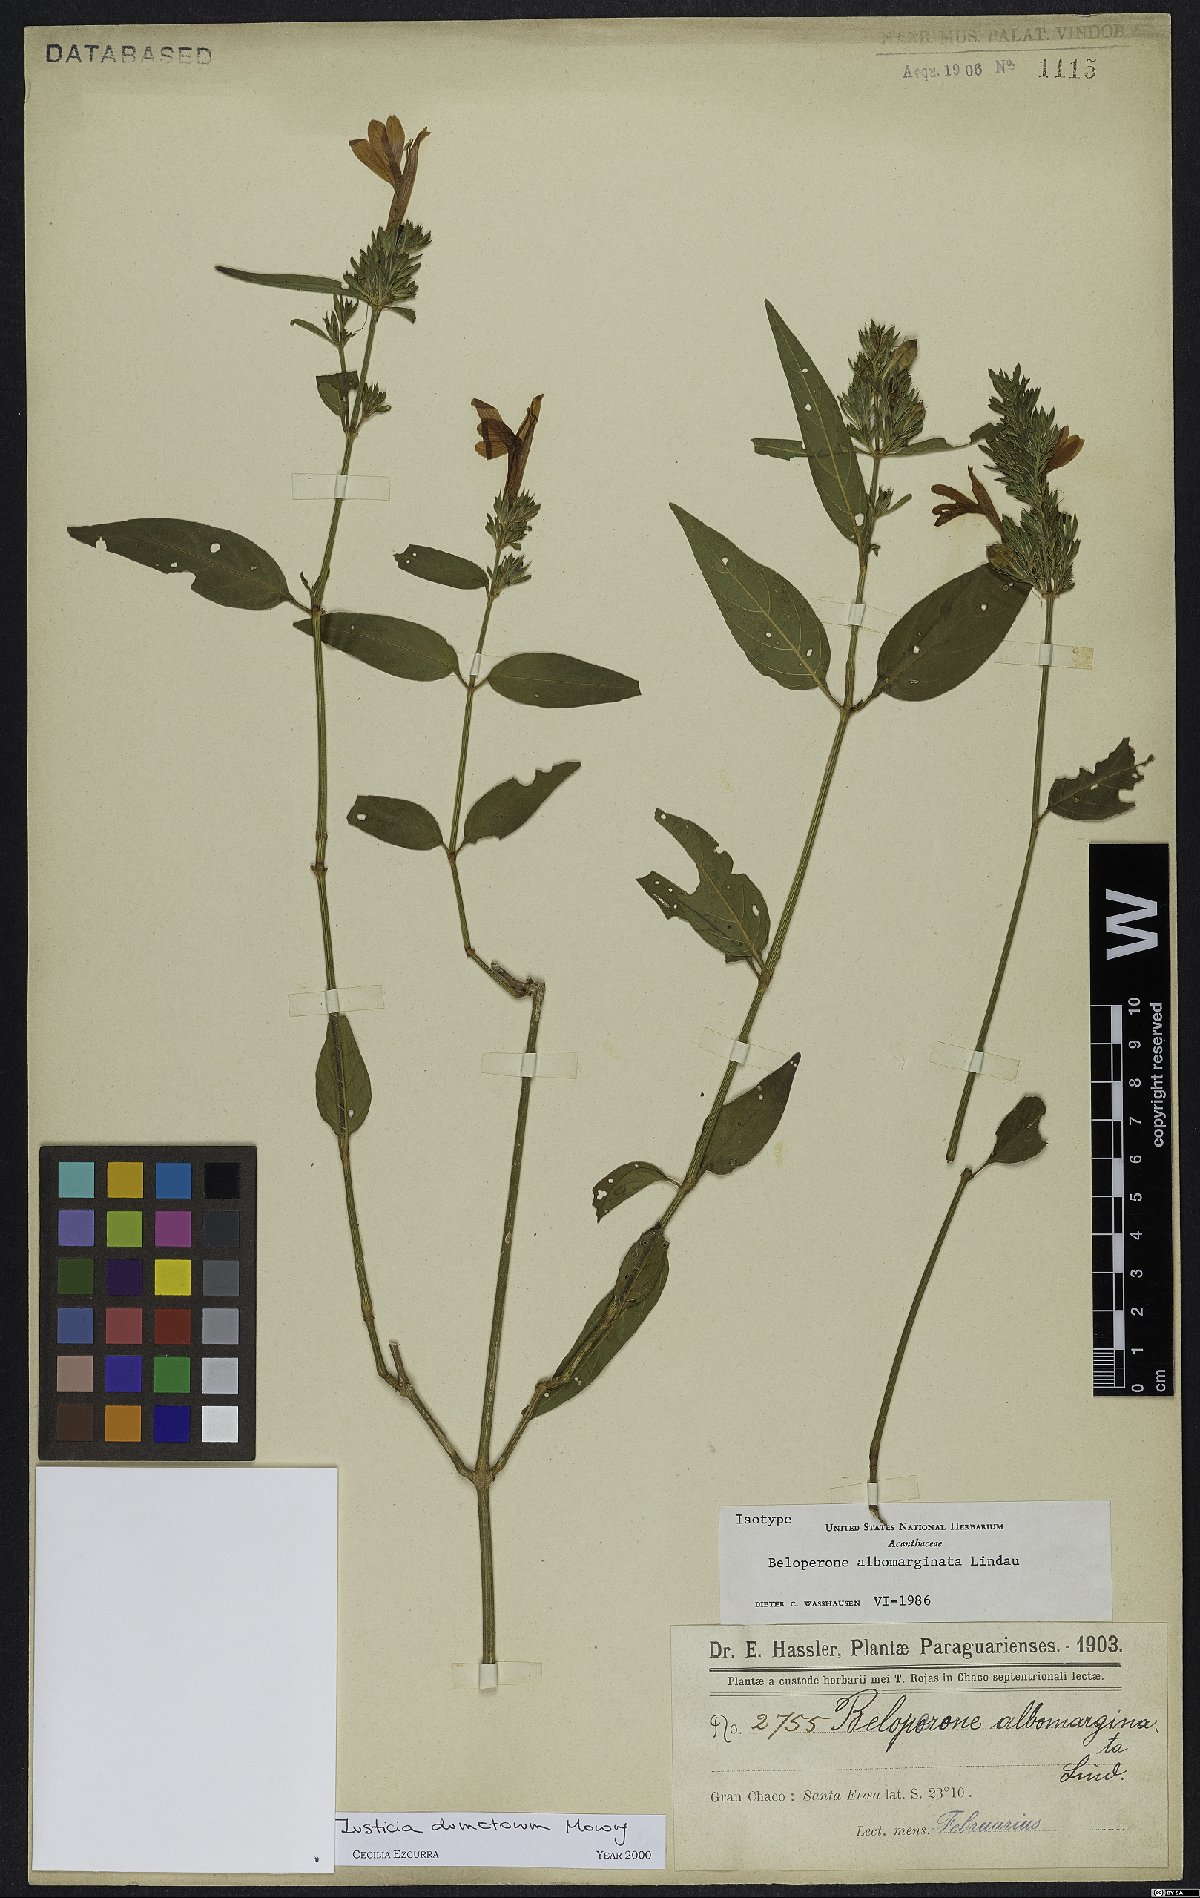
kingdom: Plantae
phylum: Tracheophyta
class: Magnoliopsida
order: Lamiales
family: Acanthaceae
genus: Justicia
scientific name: Justicia dumetorum
